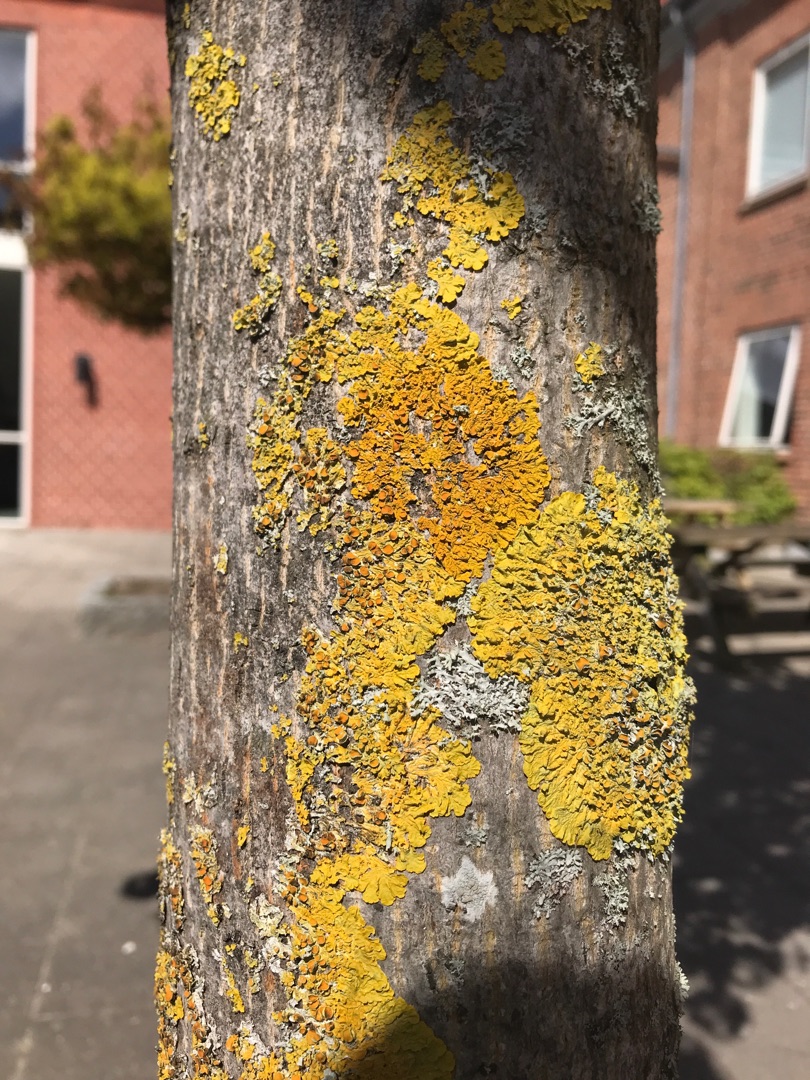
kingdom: Fungi
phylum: Ascomycota
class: Lecanoromycetes
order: Teloschistales
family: Teloschistaceae
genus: Xanthoria
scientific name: Xanthoria parietina
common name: Almindelig væggelav
